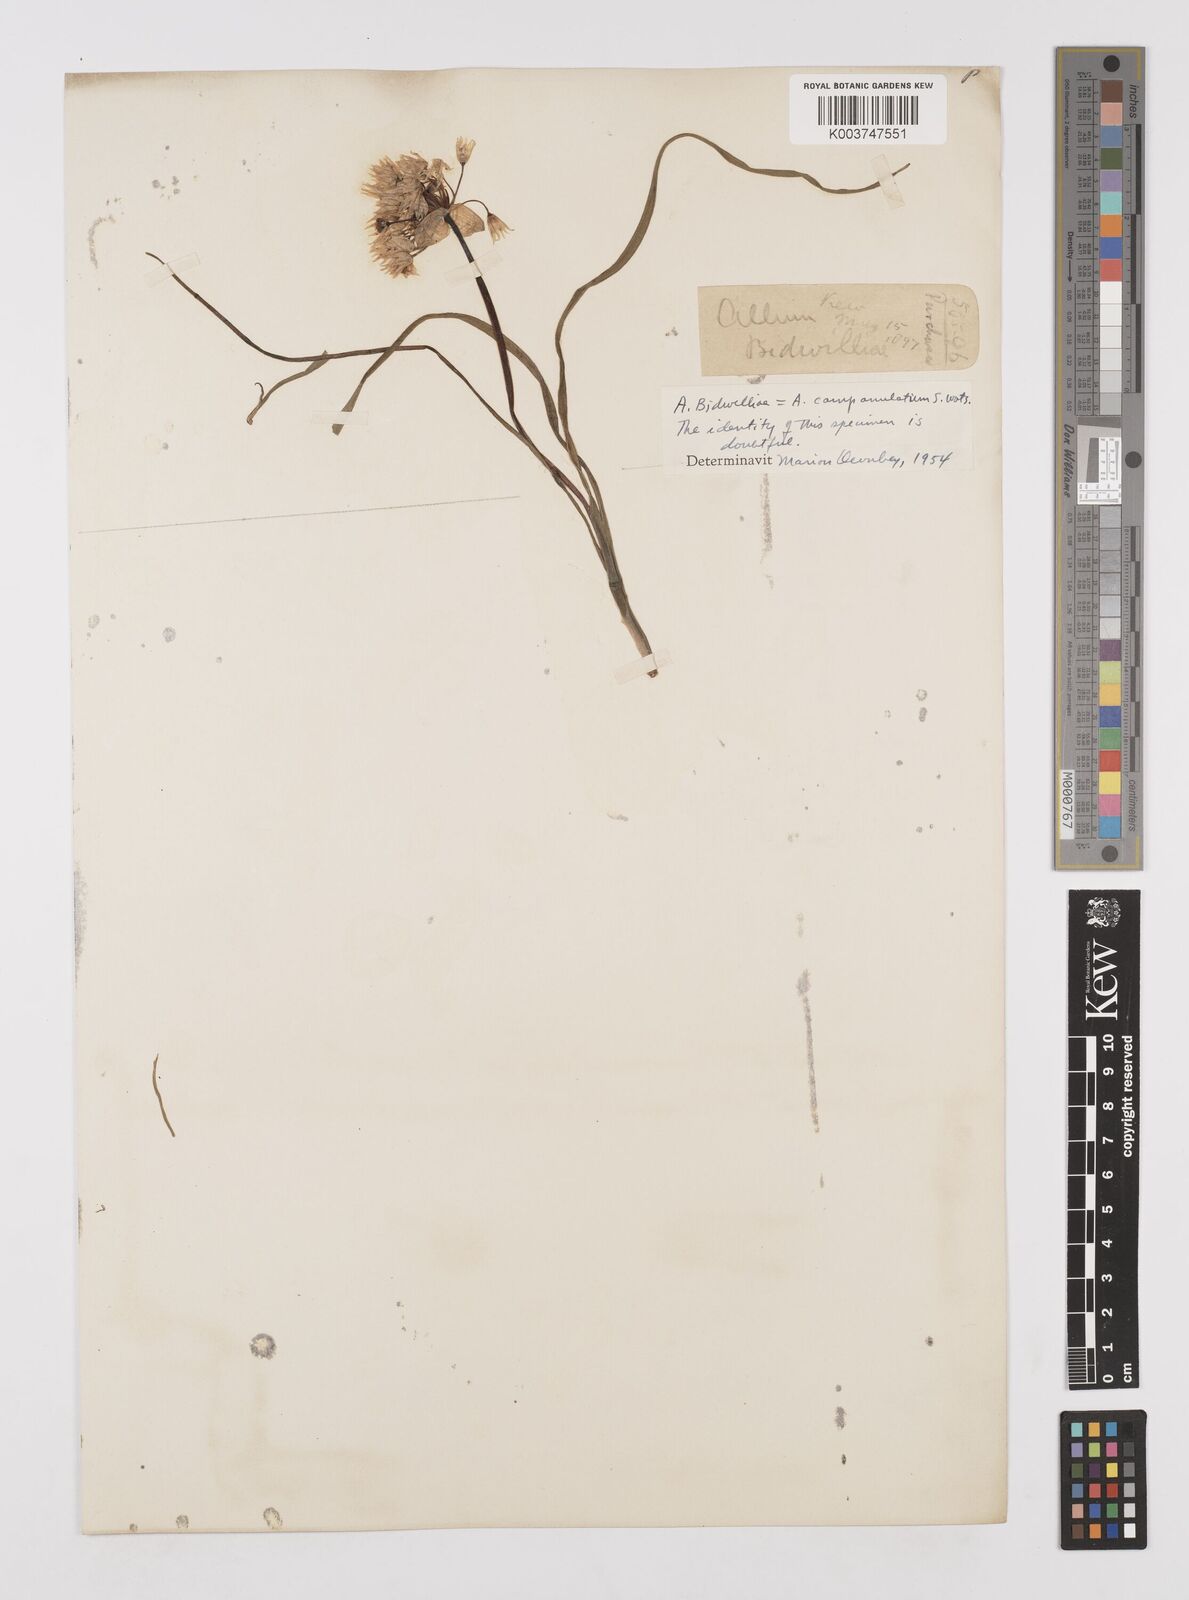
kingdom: Plantae
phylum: Tracheophyta
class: Liliopsida
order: Asparagales
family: Amaryllidaceae
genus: Allium
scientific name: Allium campanulatum
